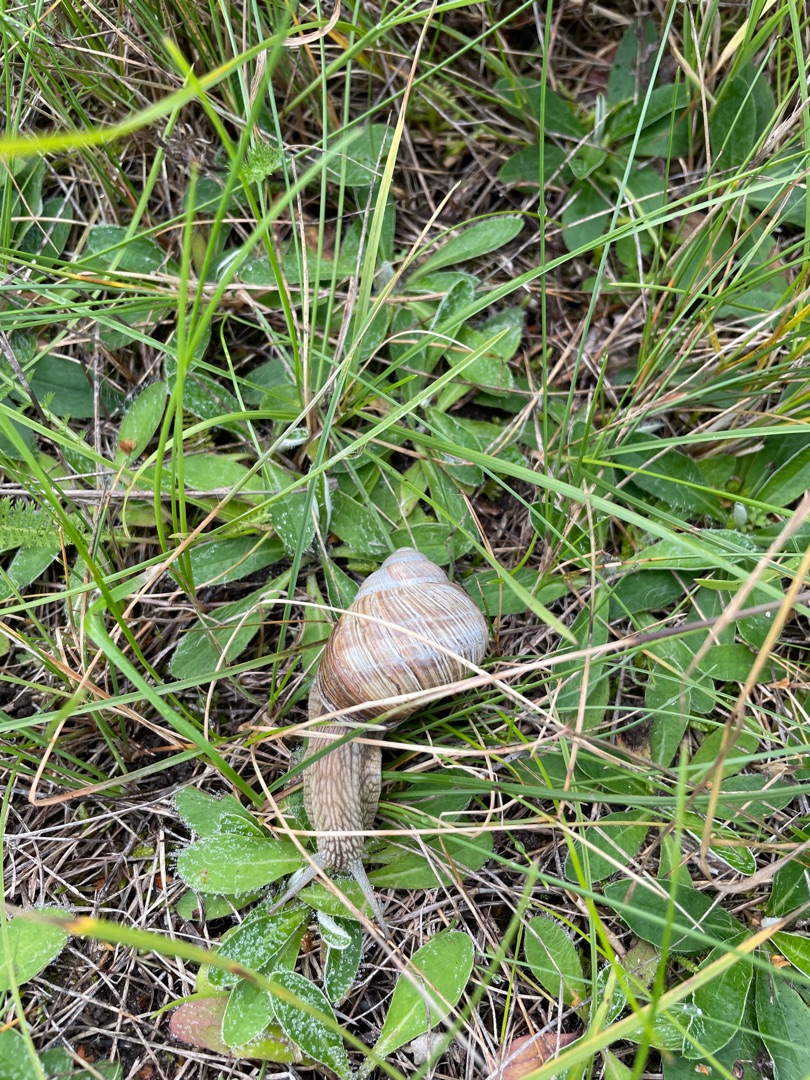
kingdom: Animalia
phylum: Mollusca
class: Gastropoda
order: Stylommatophora
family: Helicidae
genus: Helix
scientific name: Helix pomatia
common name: Vinbjergsnegl
